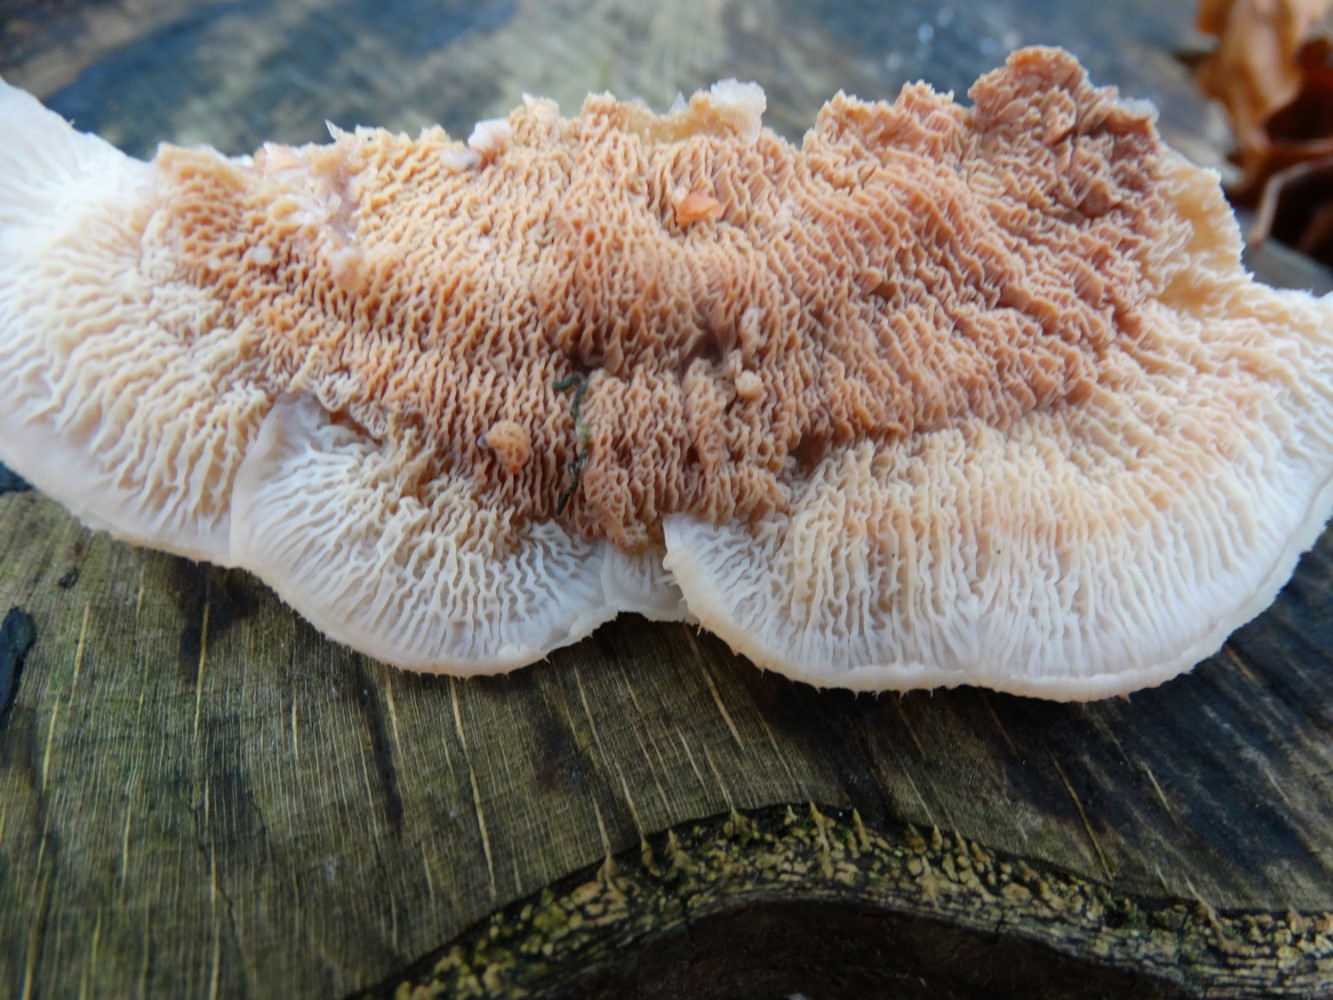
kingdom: Fungi
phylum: Basidiomycota
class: Agaricomycetes
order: Polyporales
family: Meruliaceae
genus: Phlebia
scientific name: Phlebia tremellosa
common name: bævrende åresvamp
